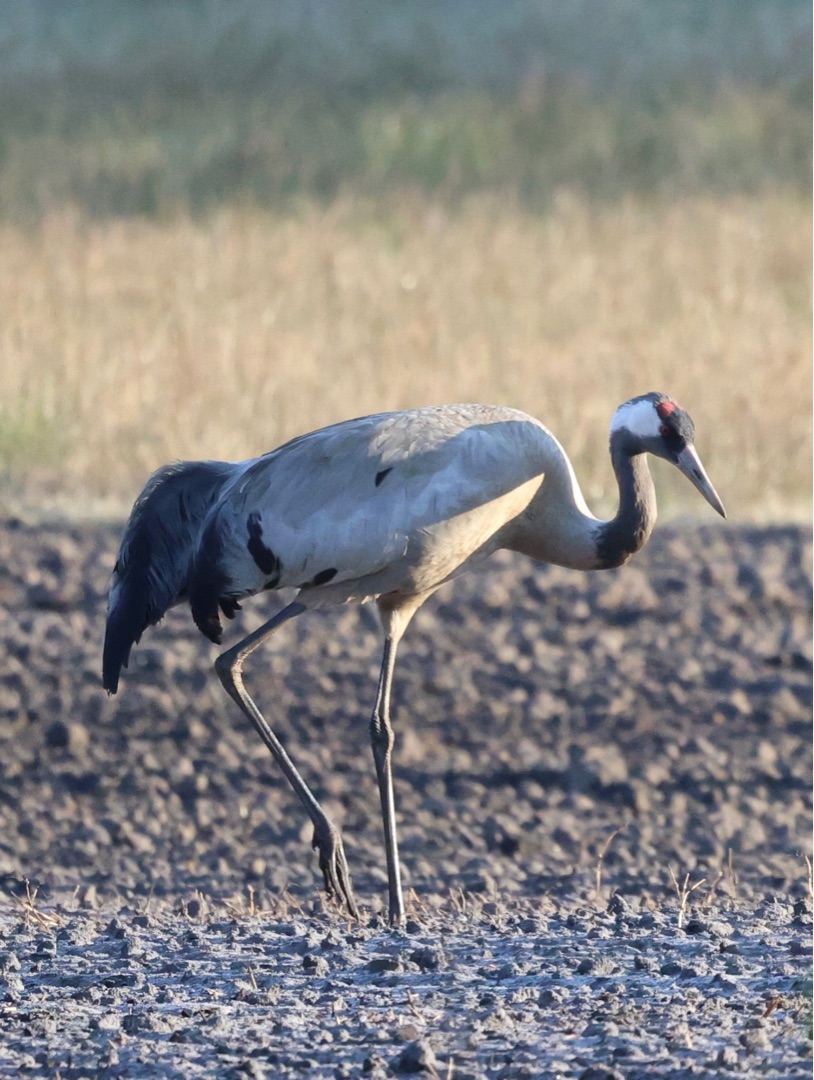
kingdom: Animalia
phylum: Chordata
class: Aves
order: Gruiformes
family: Gruidae
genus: Grus
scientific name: Grus grus
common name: Trane
